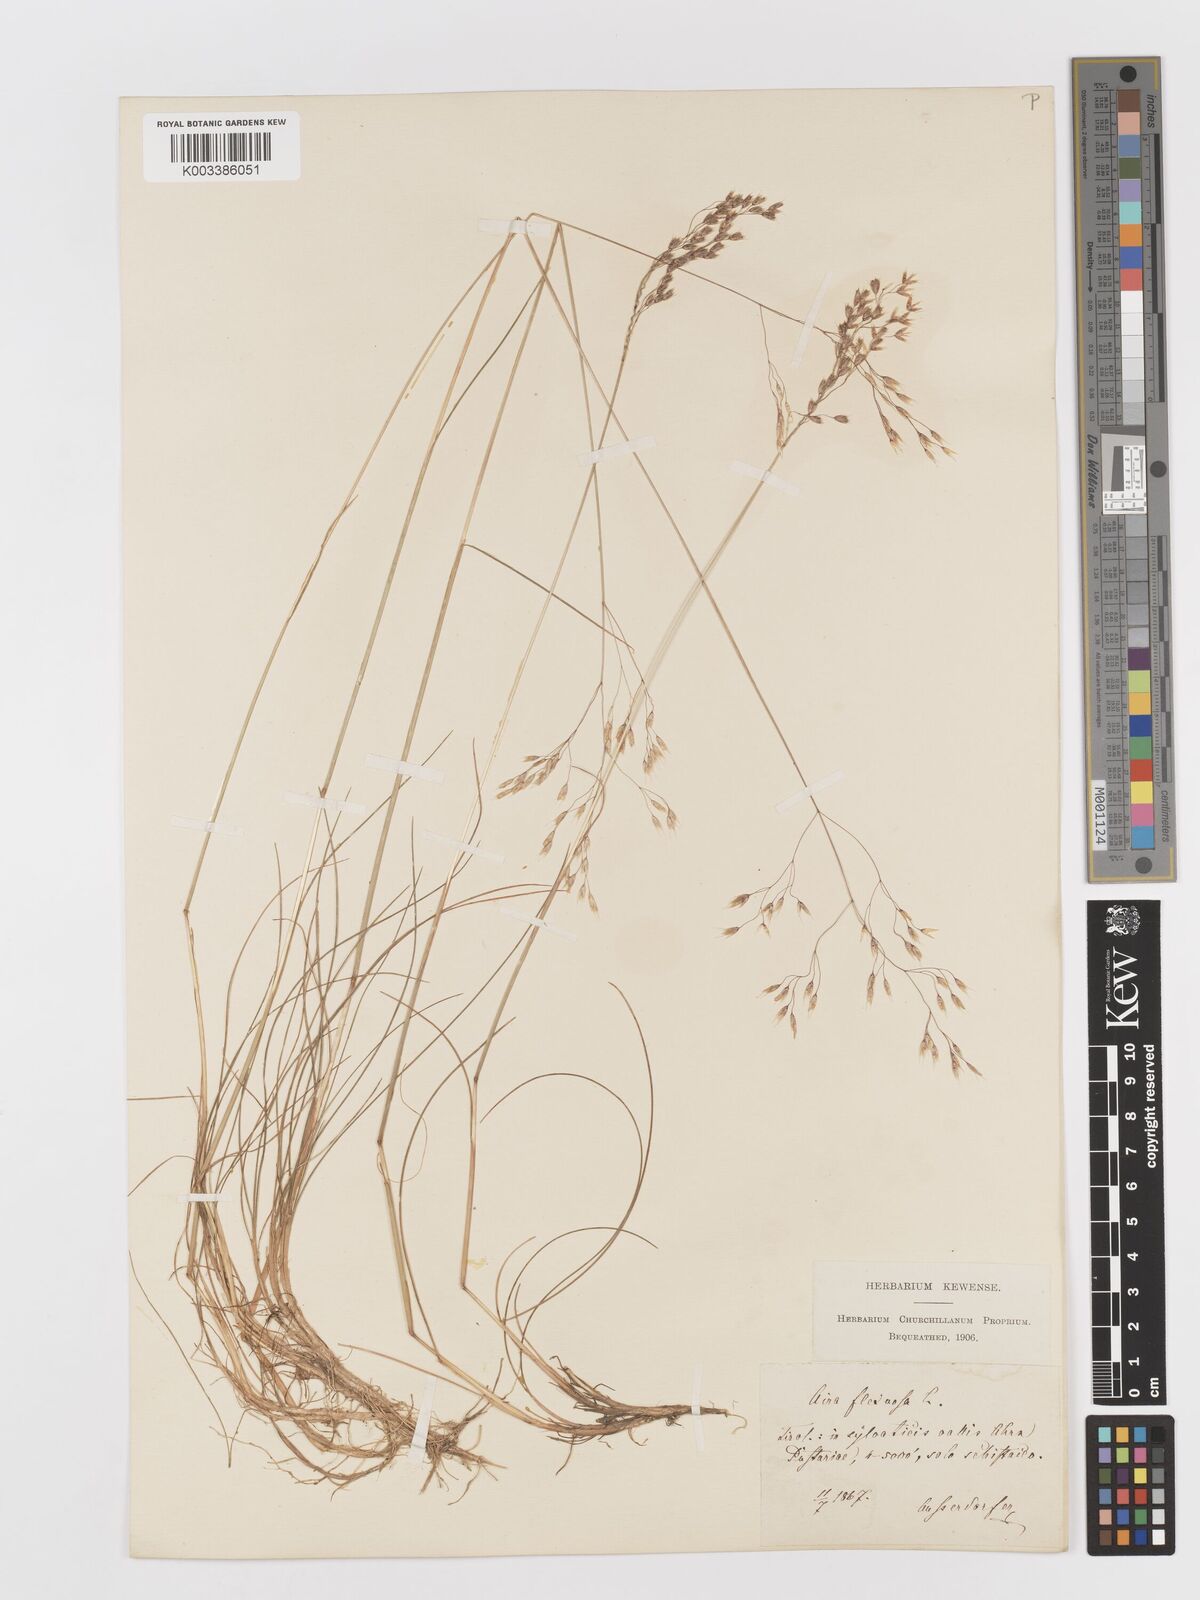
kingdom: Plantae
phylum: Tracheophyta
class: Liliopsida
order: Poales
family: Poaceae
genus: Avenella
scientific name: Avenella flexuosa
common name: Wavy hairgrass
